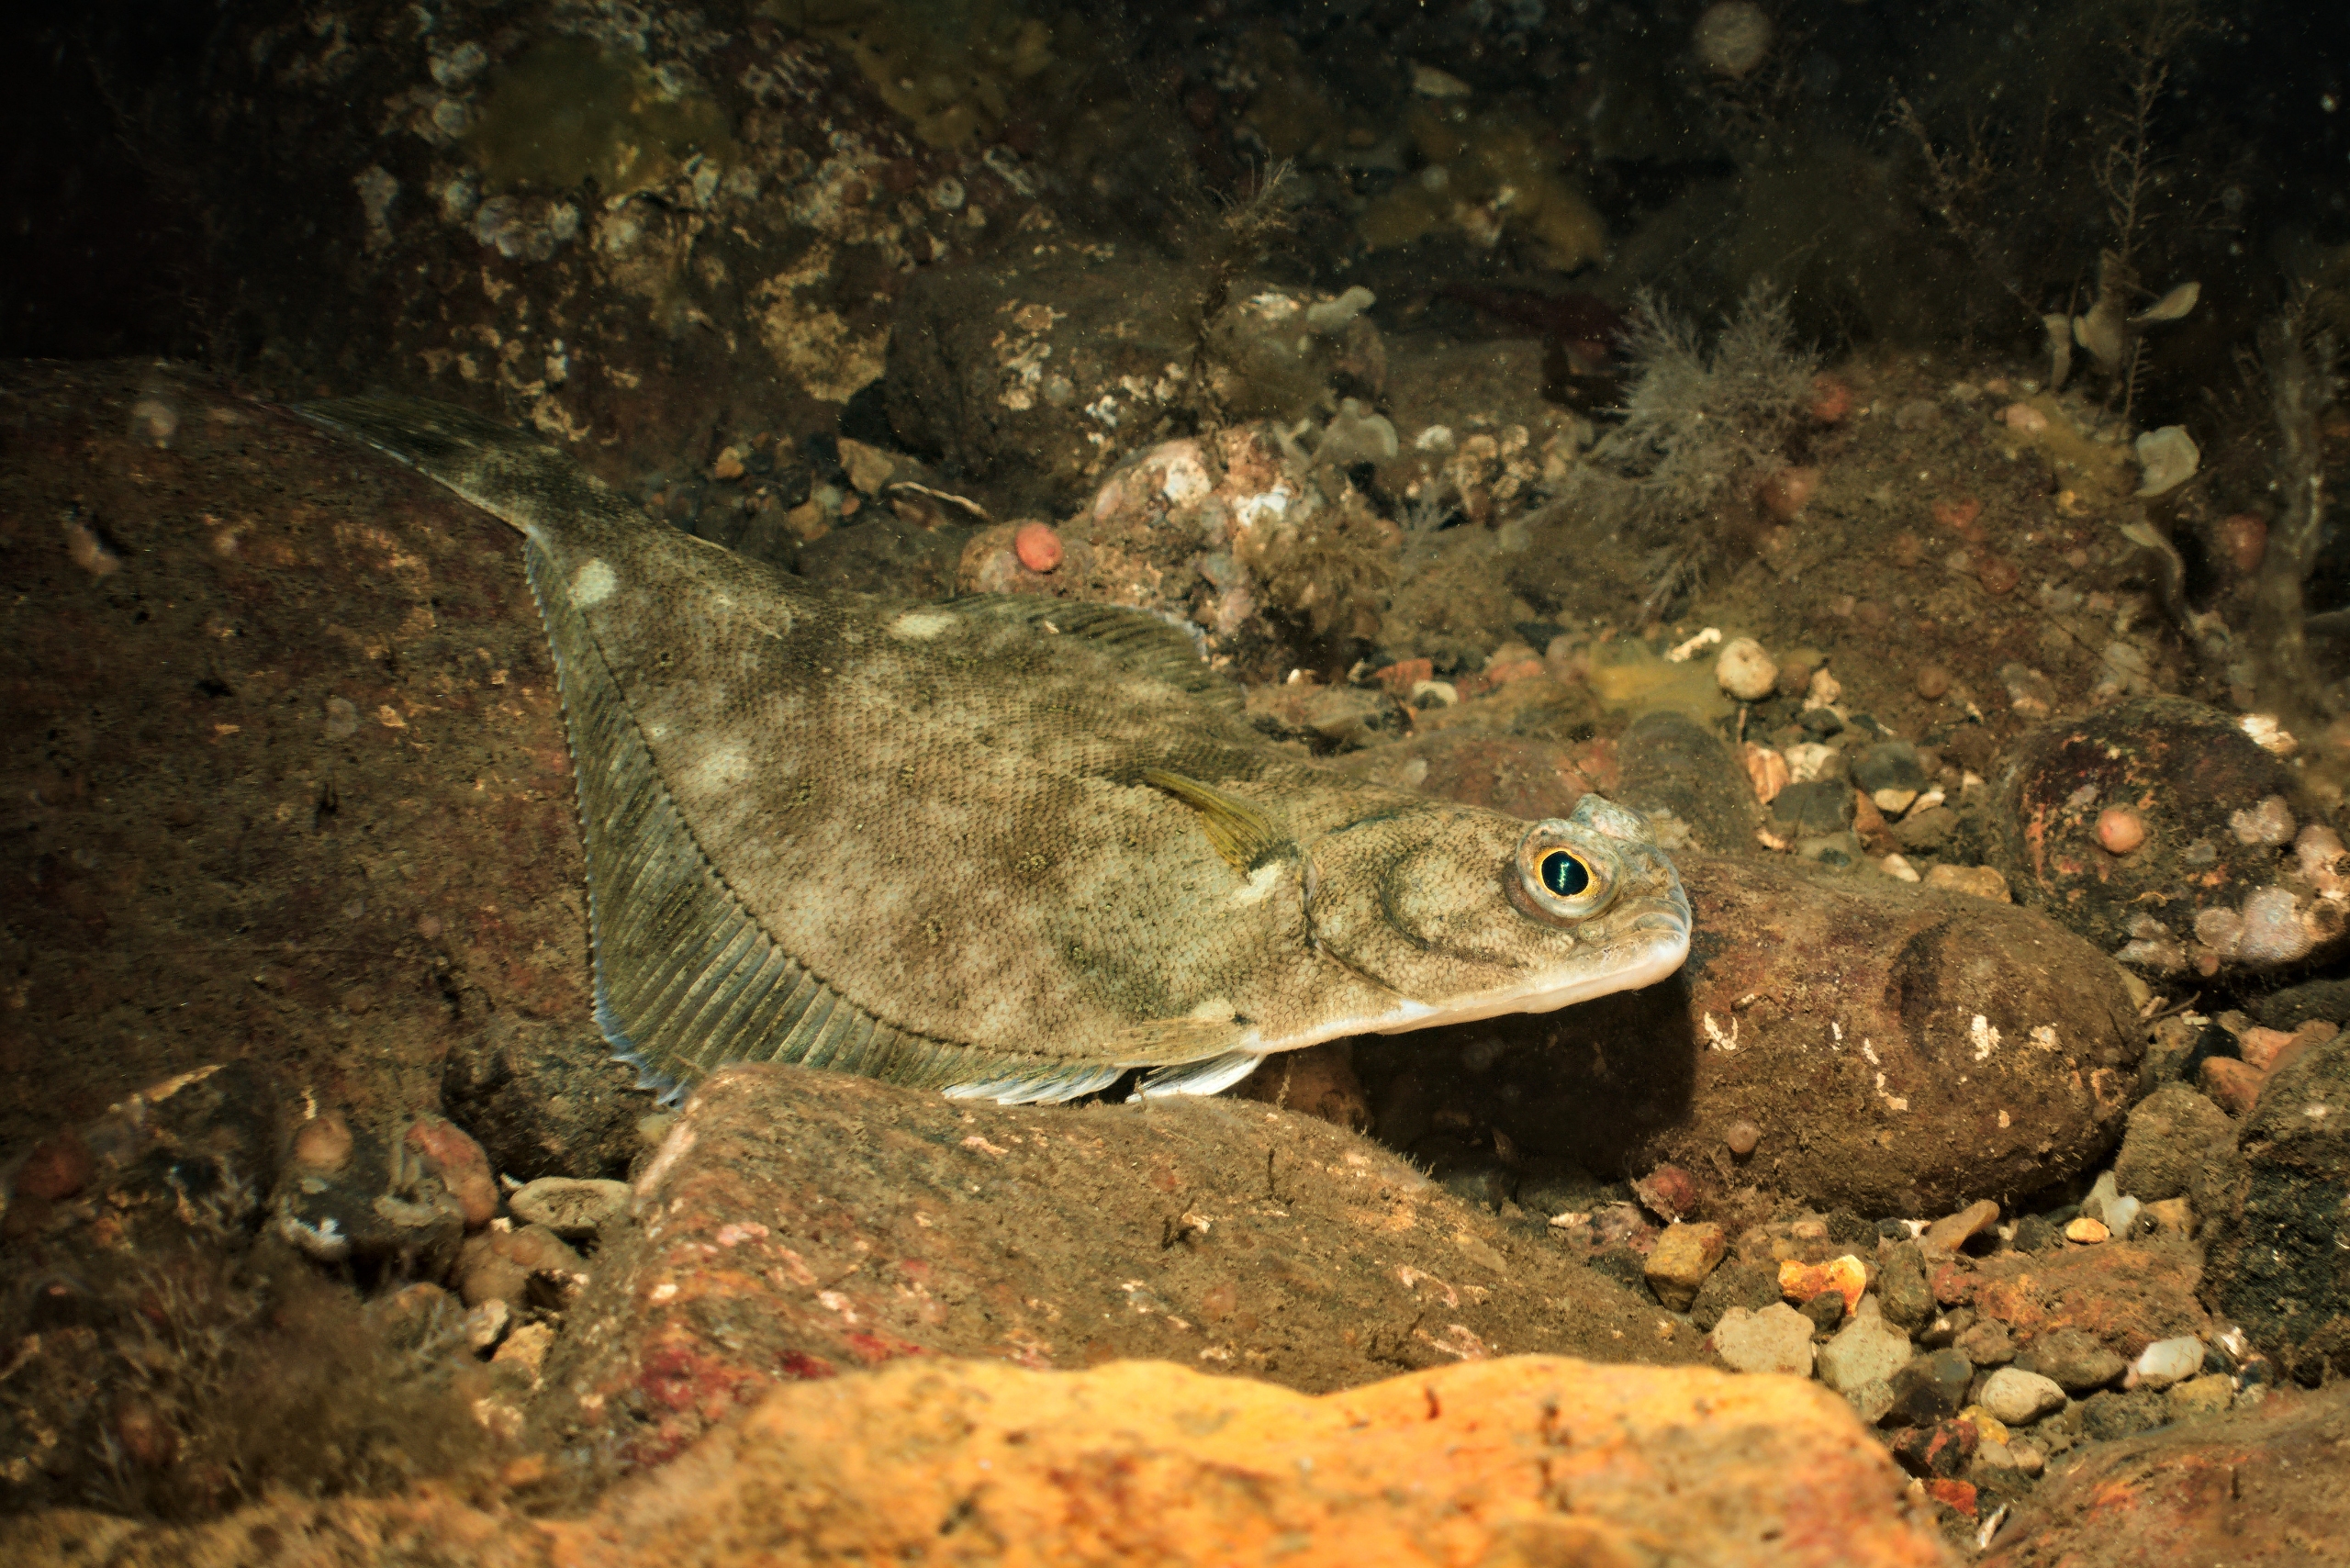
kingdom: Animalia
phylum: Chordata
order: Pleuronectiformes
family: Pleuronectidae
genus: Limanda
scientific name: Limanda limanda
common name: Ising
